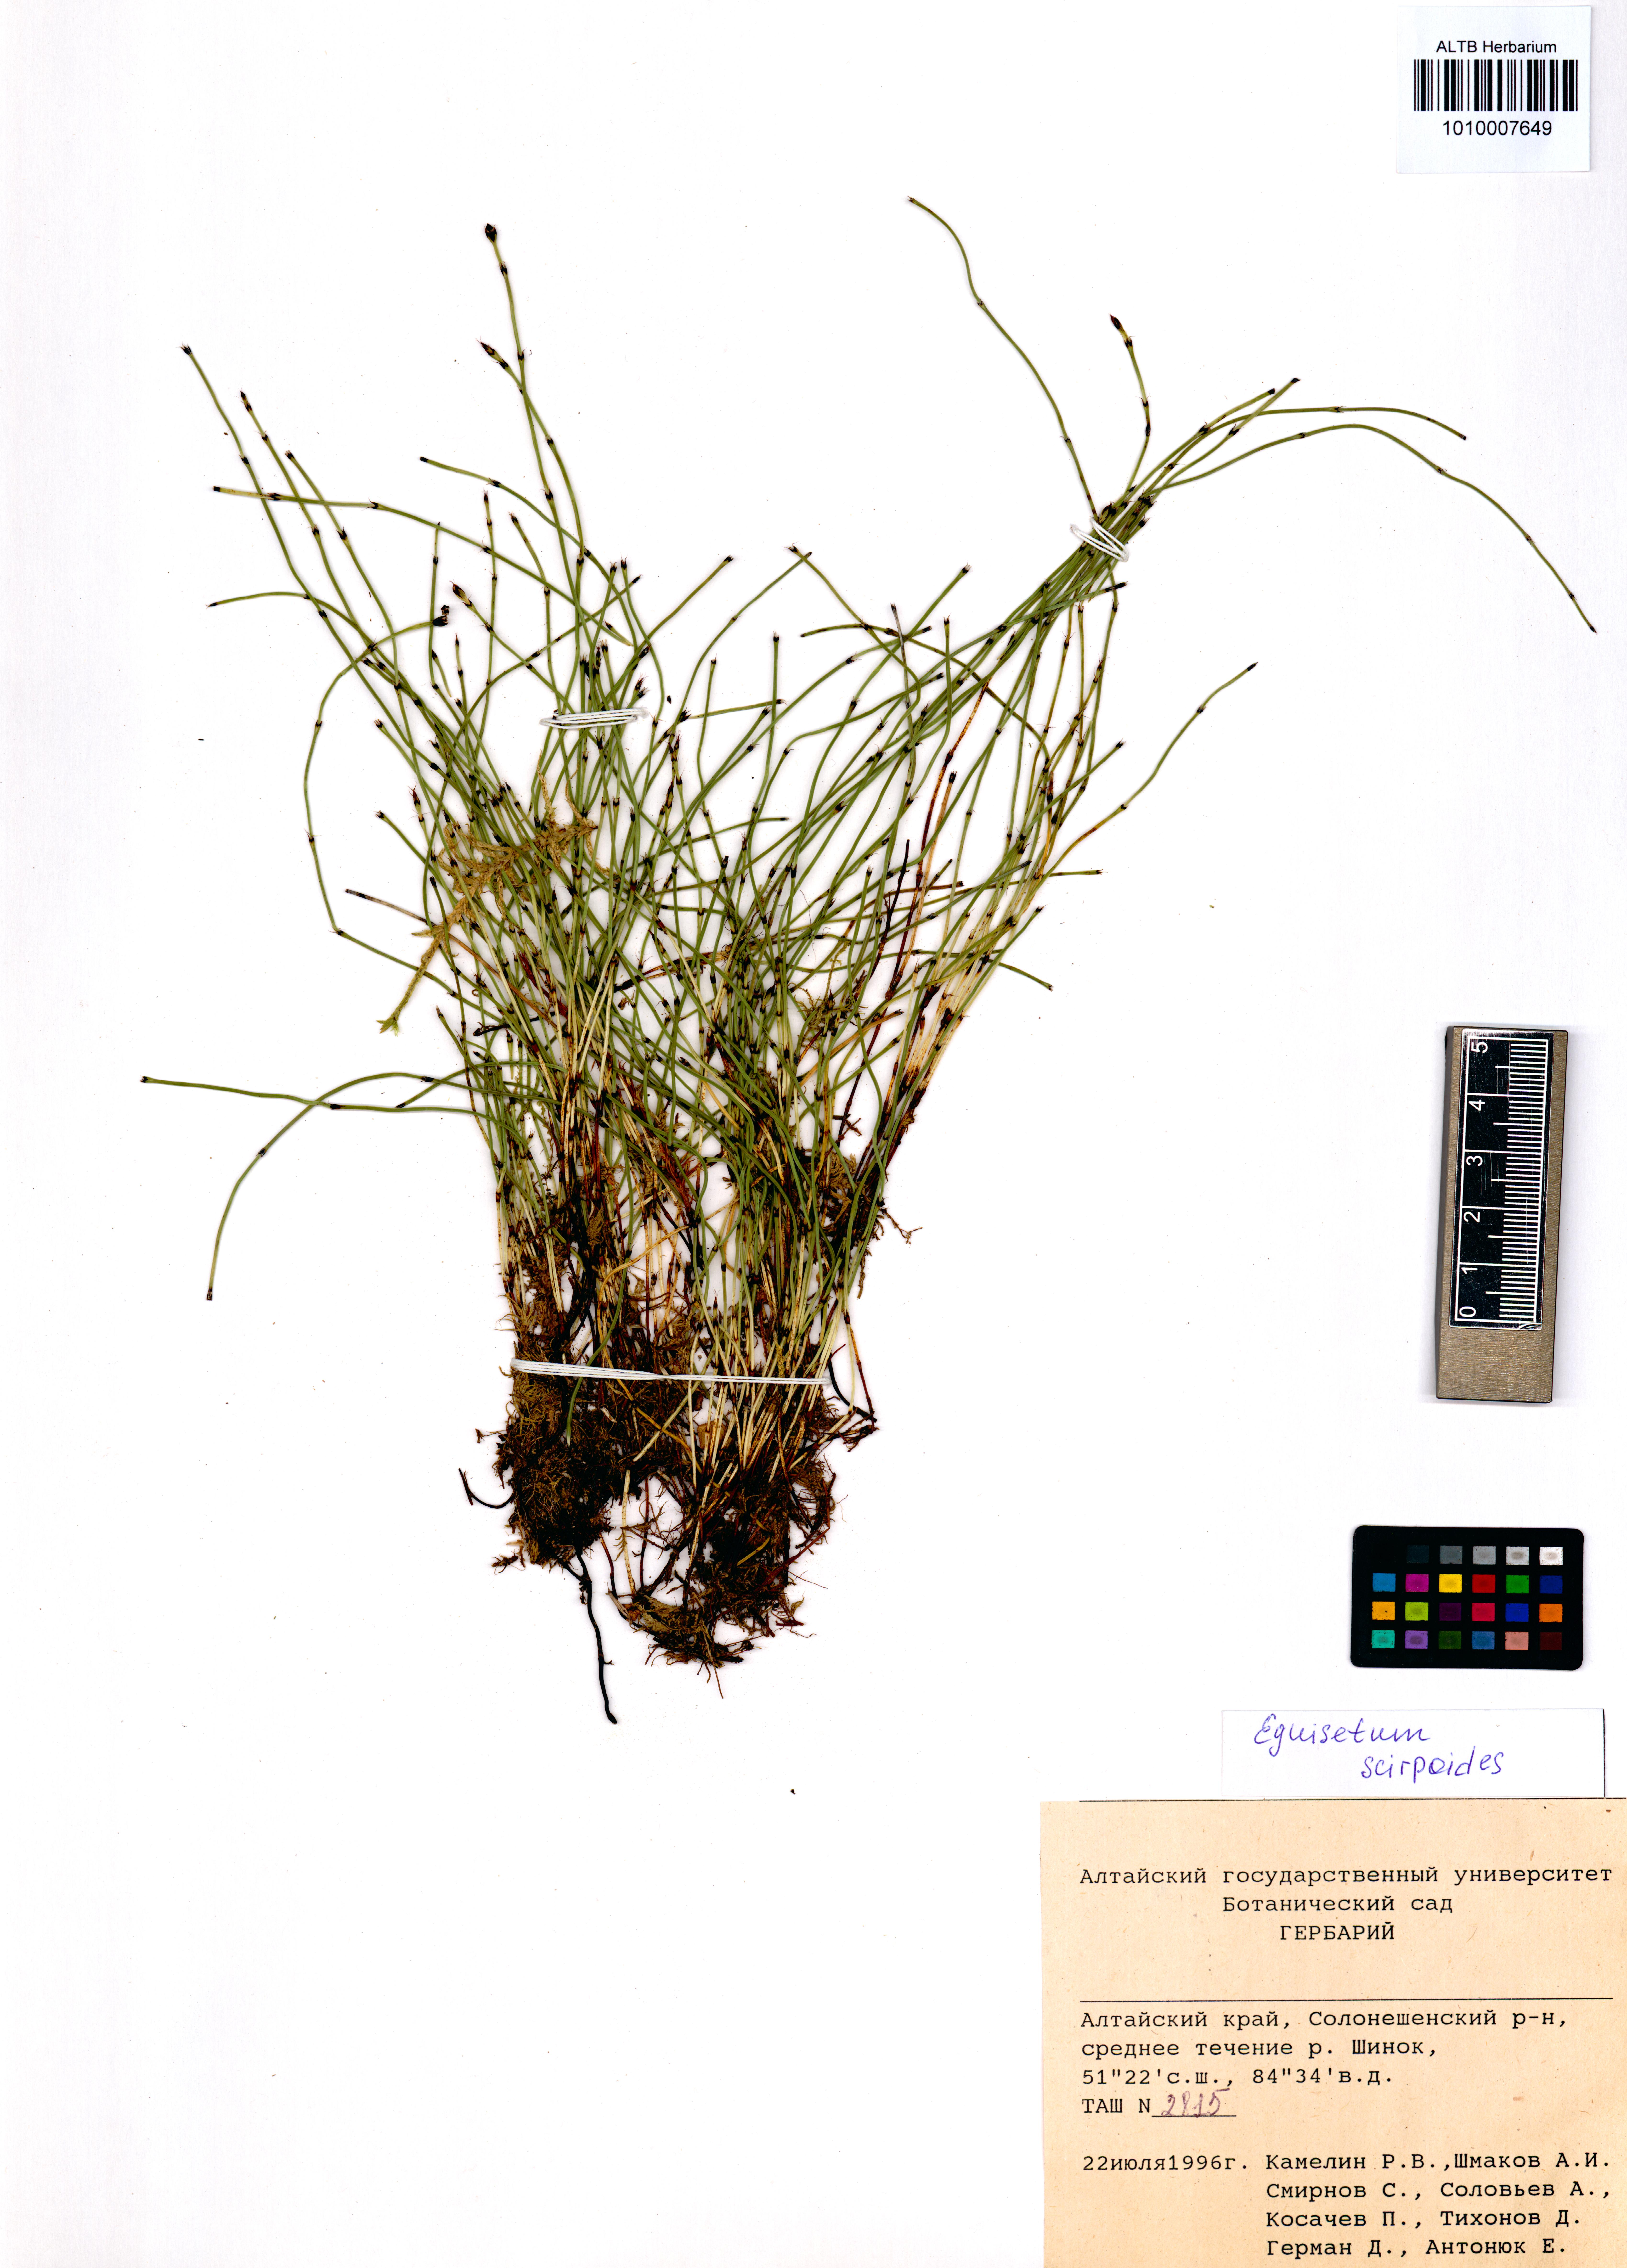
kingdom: Plantae
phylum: Tracheophyta
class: Polypodiopsida
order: Equisetales
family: Equisetaceae
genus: Equisetum
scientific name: Equisetum scirpoides
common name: Delicate horsetail
